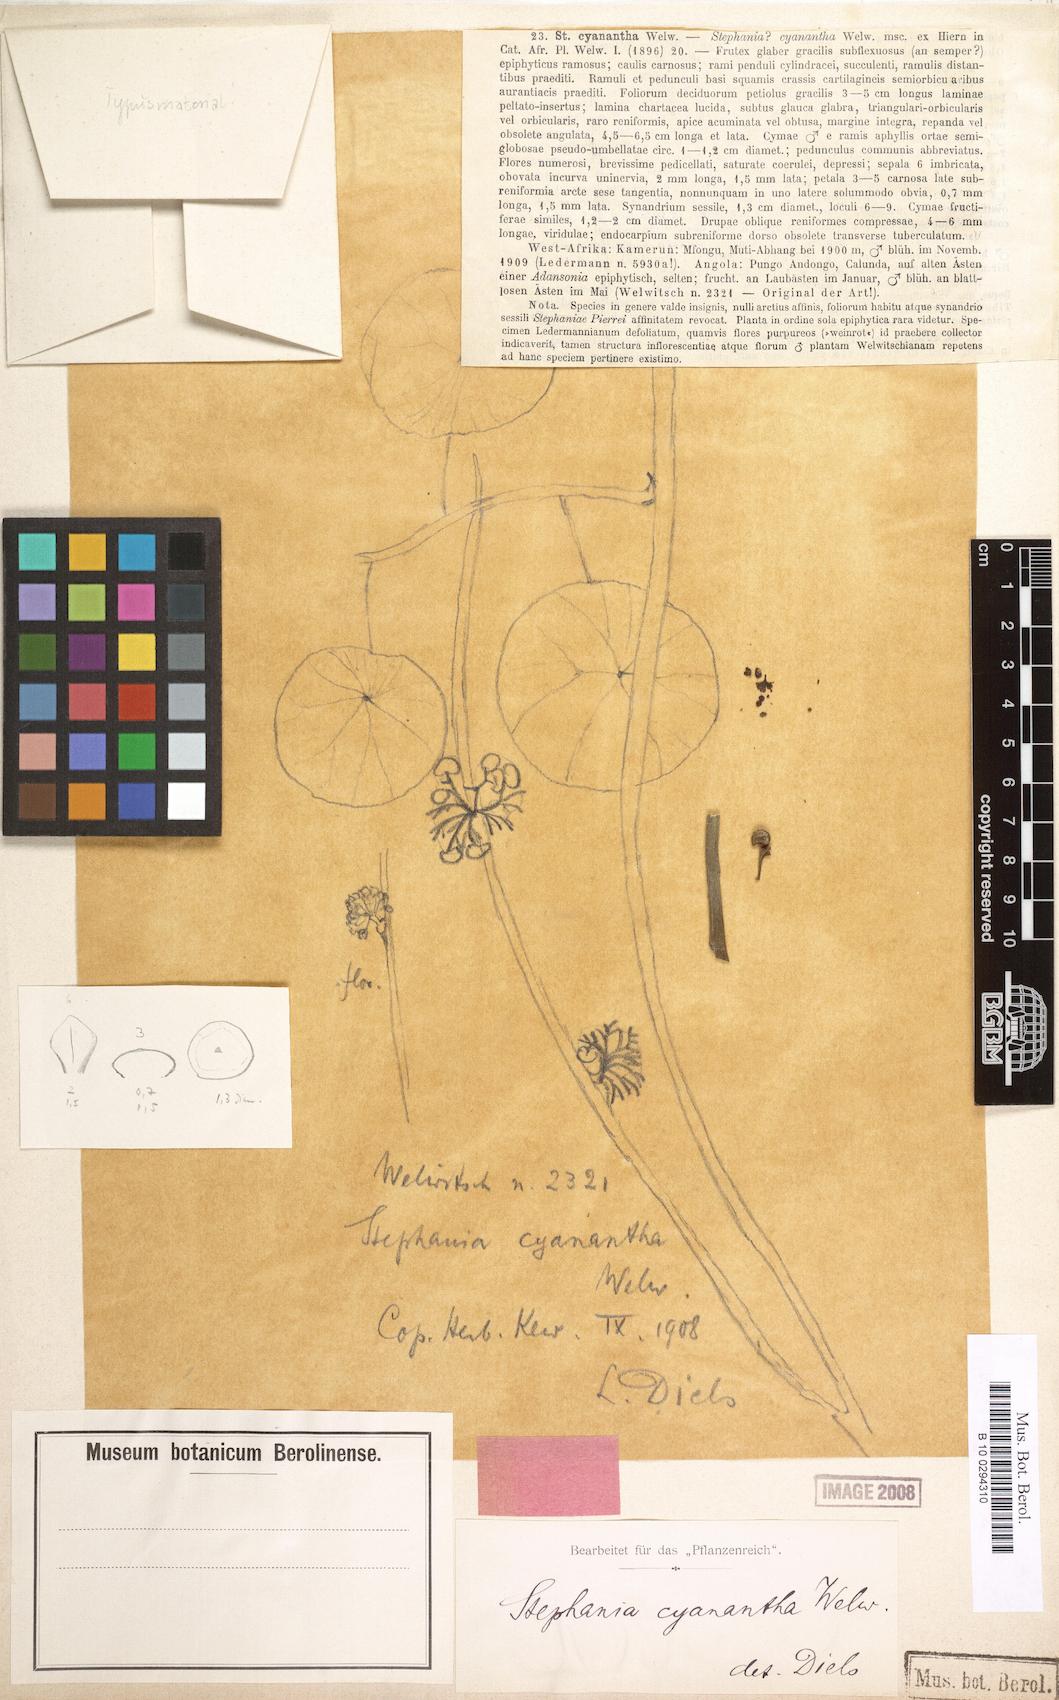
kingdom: Plantae
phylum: Tracheophyta
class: Magnoliopsida
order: Ranunculales
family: Menispermaceae
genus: Stephania
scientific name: Stephania cyanantha
